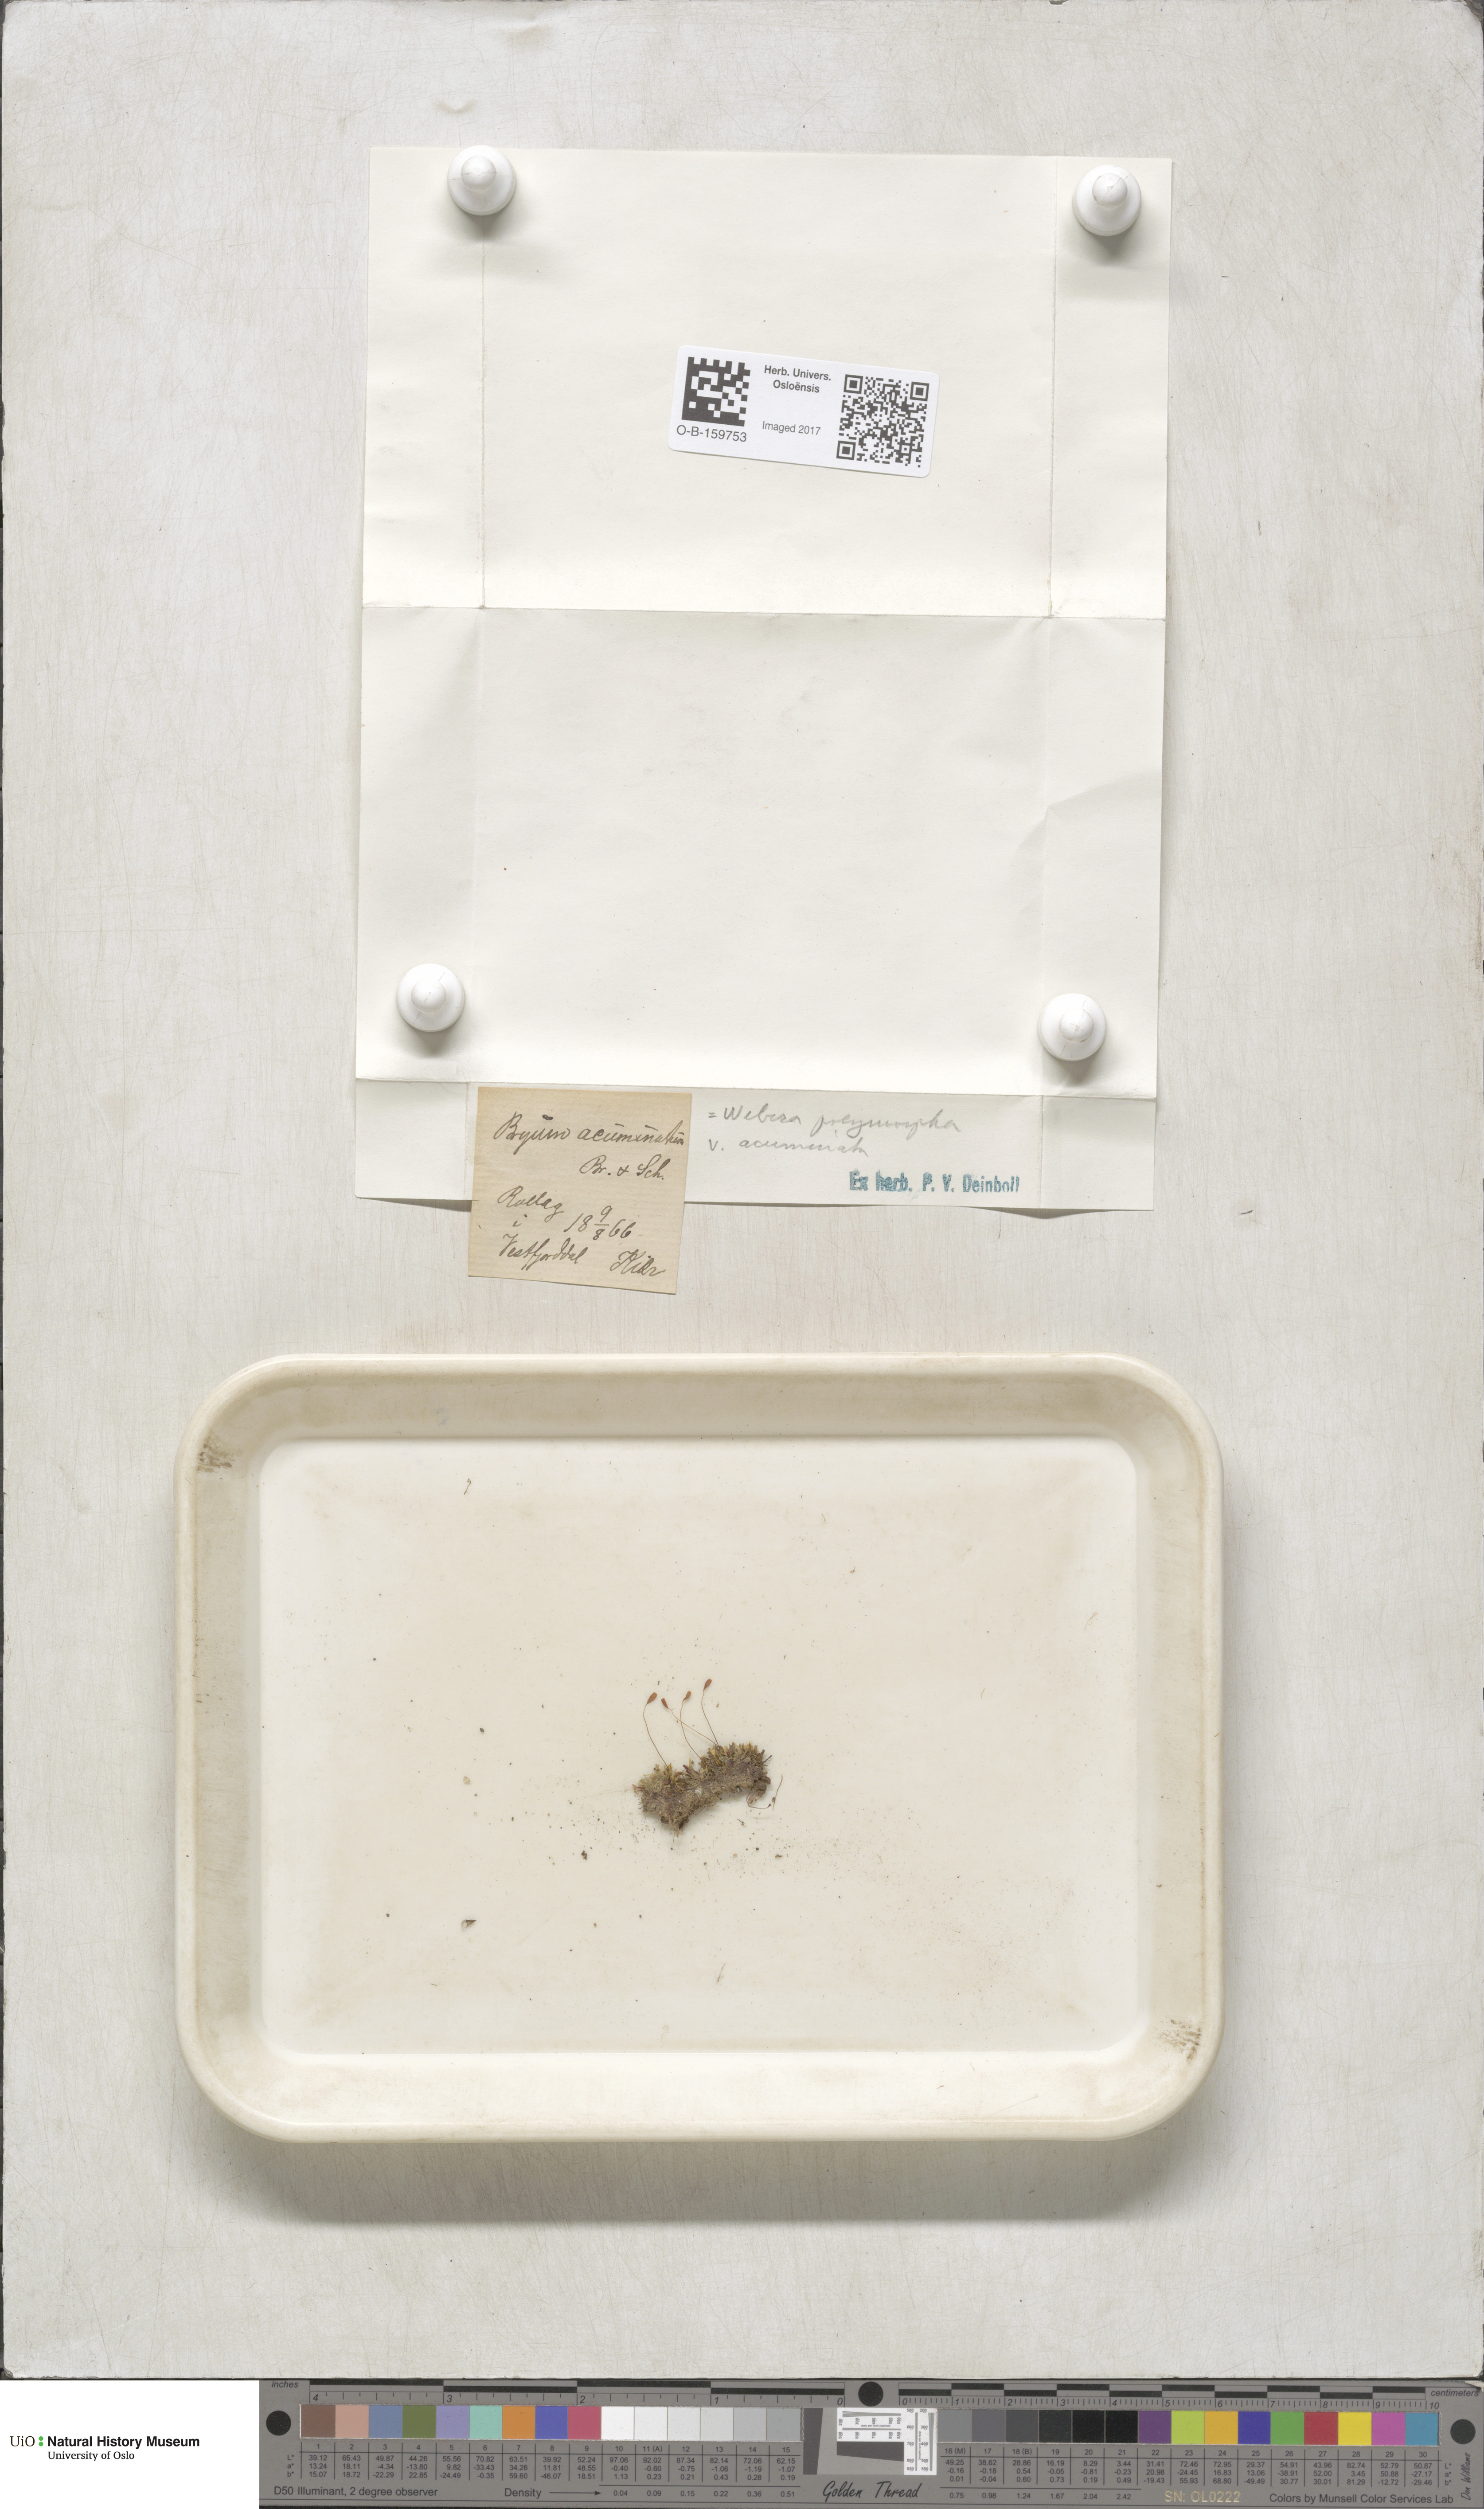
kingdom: Plantae
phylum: Bryophyta
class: Bryopsida
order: Bryales
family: Mniaceae
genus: Pohlia
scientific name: Pohlia elongata
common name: Long-fruited thread-moss
